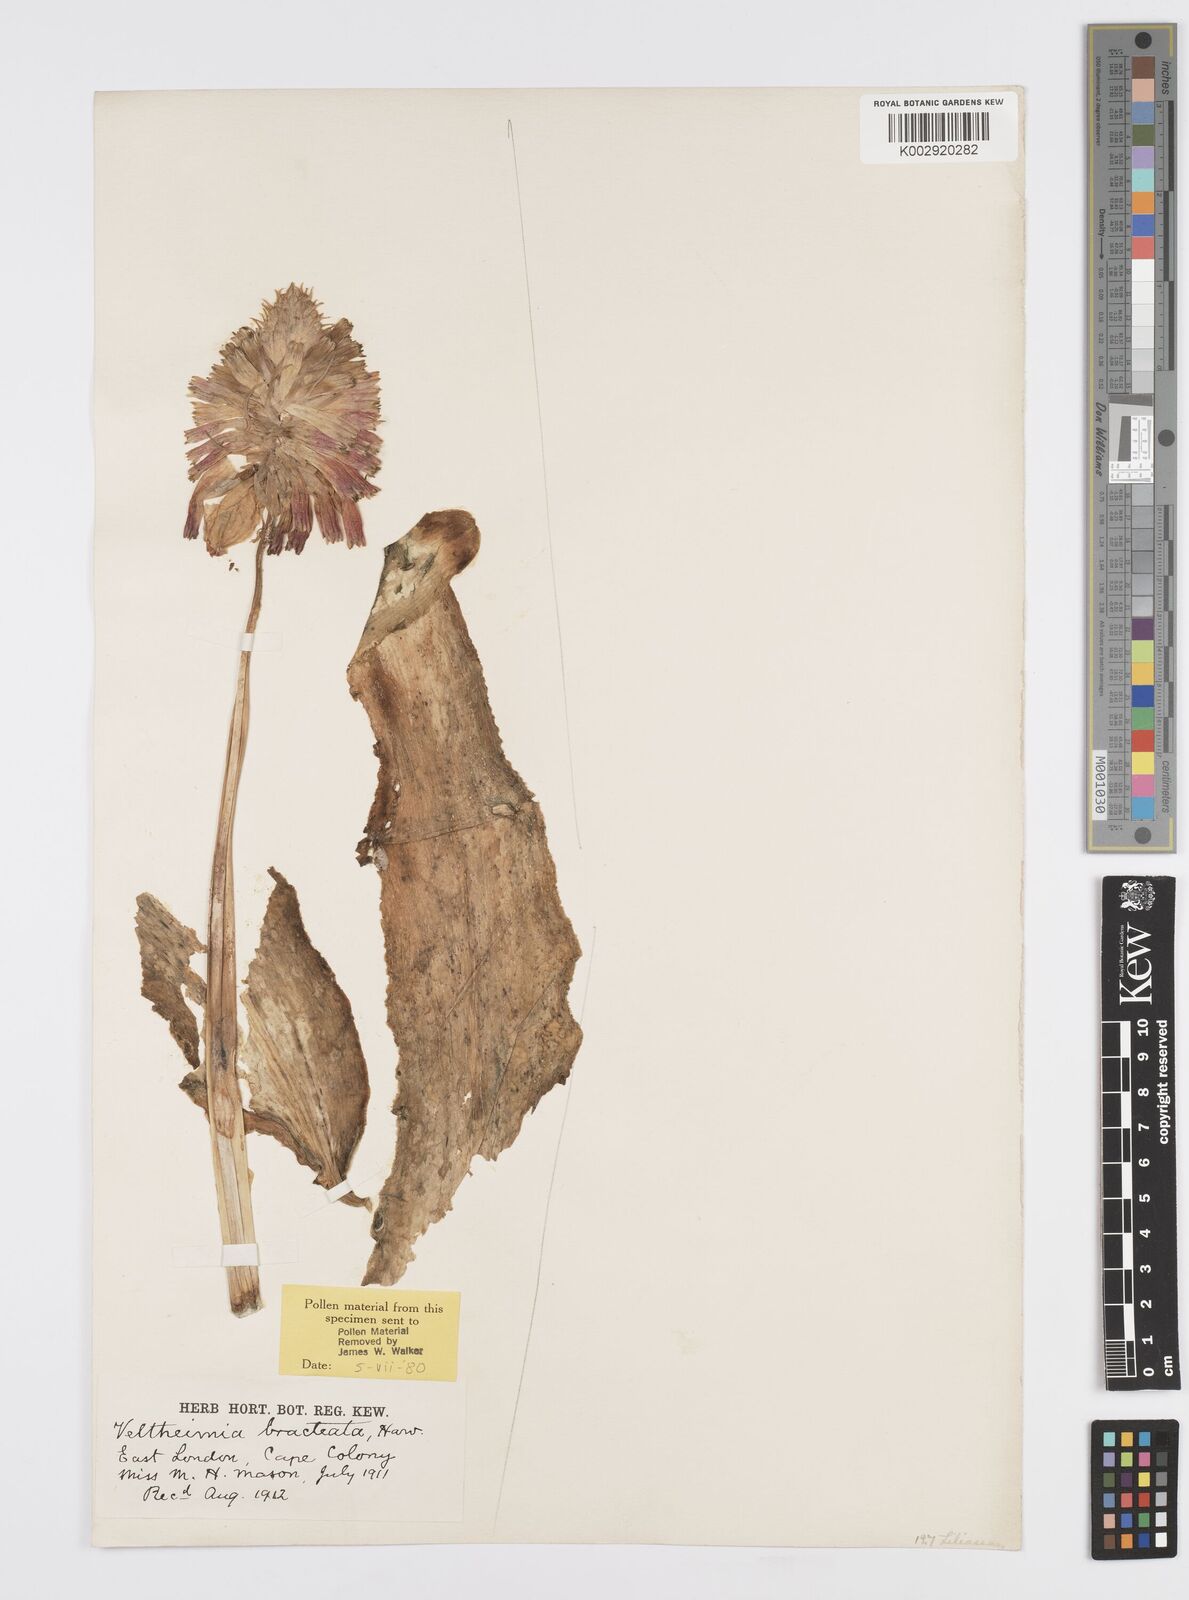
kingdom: Plantae
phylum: Tracheophyta
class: Liliopsida
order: Asparagales
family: Asparagaceae
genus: Veltheimia
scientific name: Veltheimia bracteata
